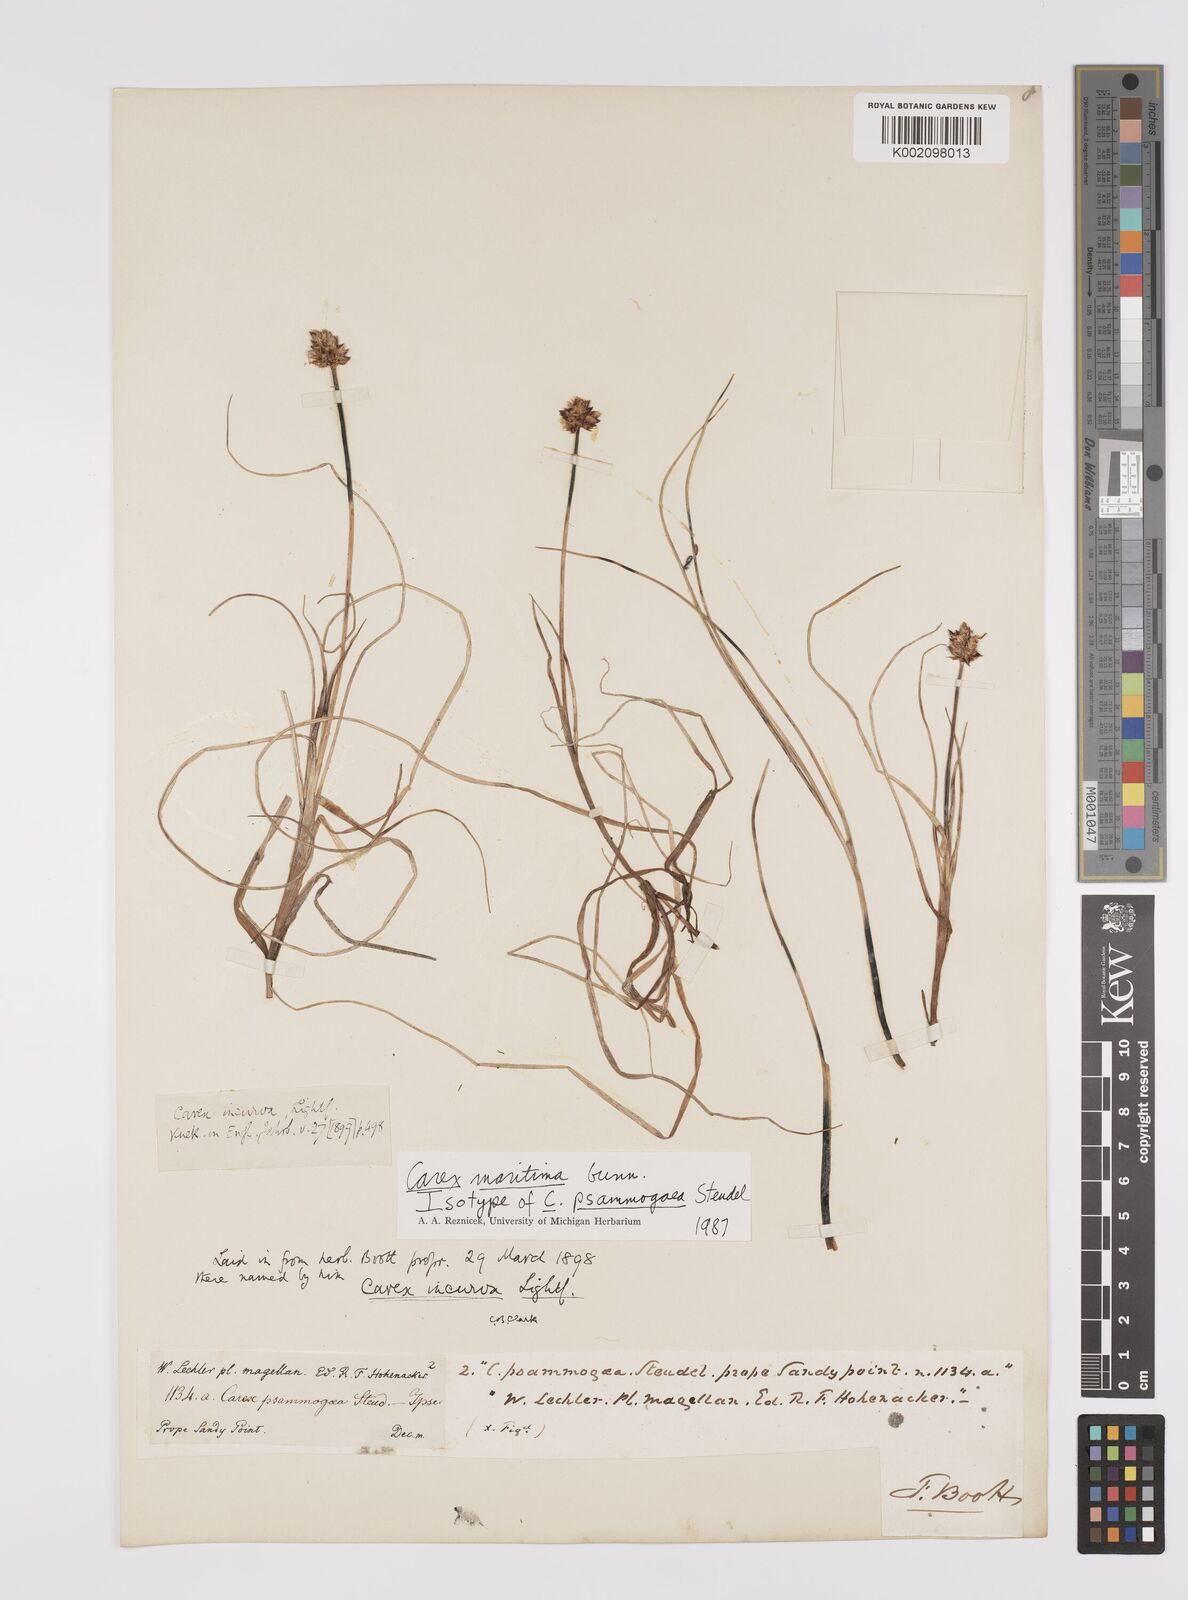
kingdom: Plantae
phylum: Tracheophyta
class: Liliopsida
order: Poales
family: Cyperaceae
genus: Carex
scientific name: Carex maritima
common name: Curved sedge
